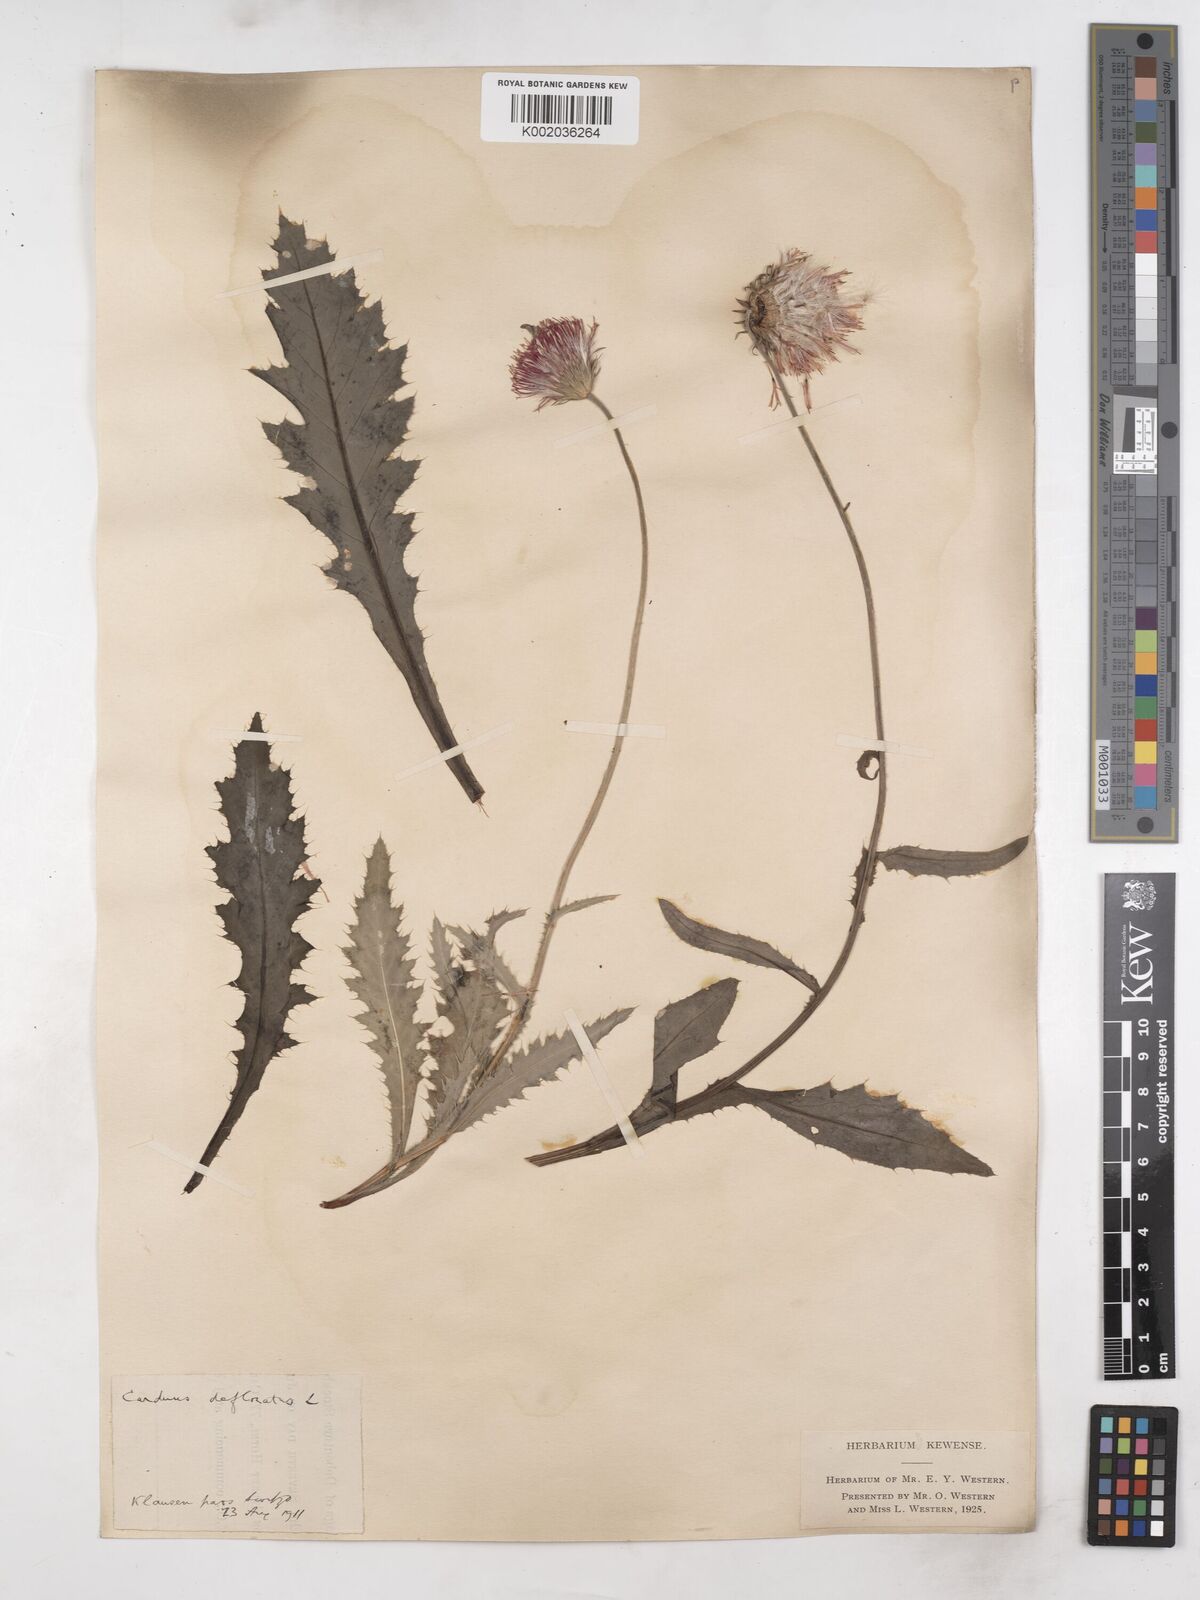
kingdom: Plantae
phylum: Tracheophyta
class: Magnoliopsida
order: Asterales
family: Asteraceae
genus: Carduus
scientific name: Carduus defloratus
